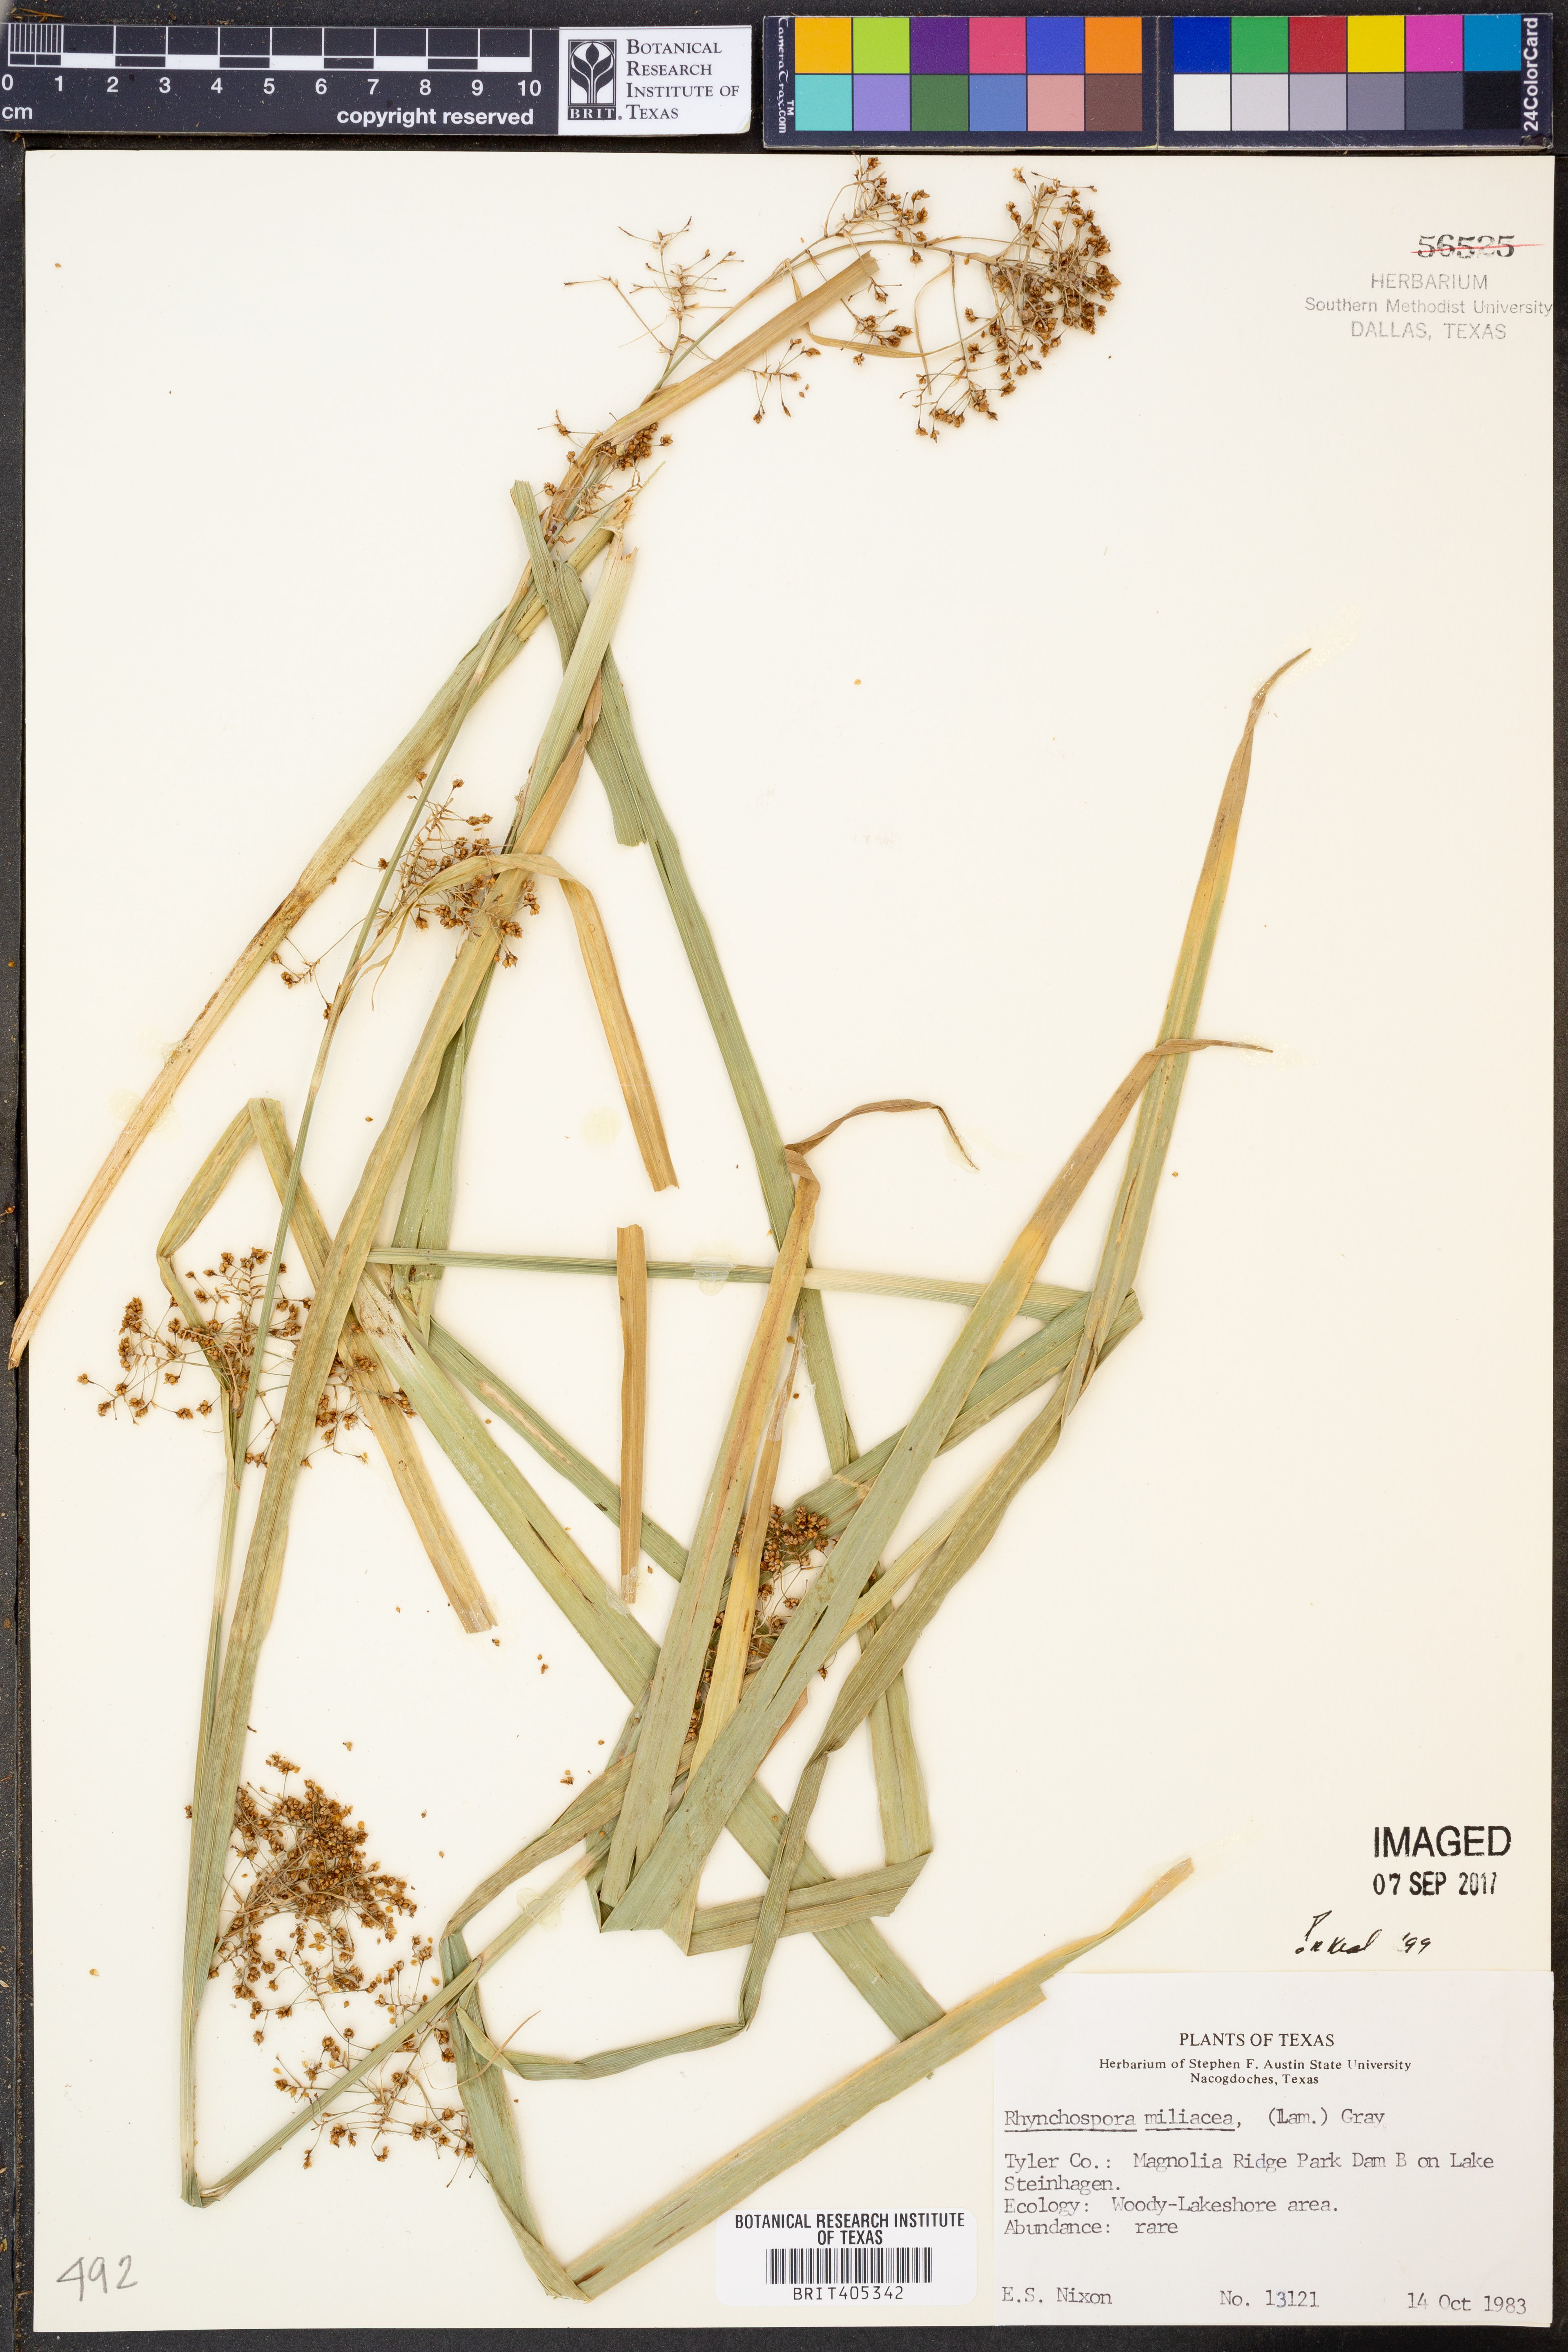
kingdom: Plantae
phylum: Tracheophyta
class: Liliopsida
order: Poales
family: Cyperaceae
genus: Rhynchospora
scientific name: Rhynchospora miliacea
